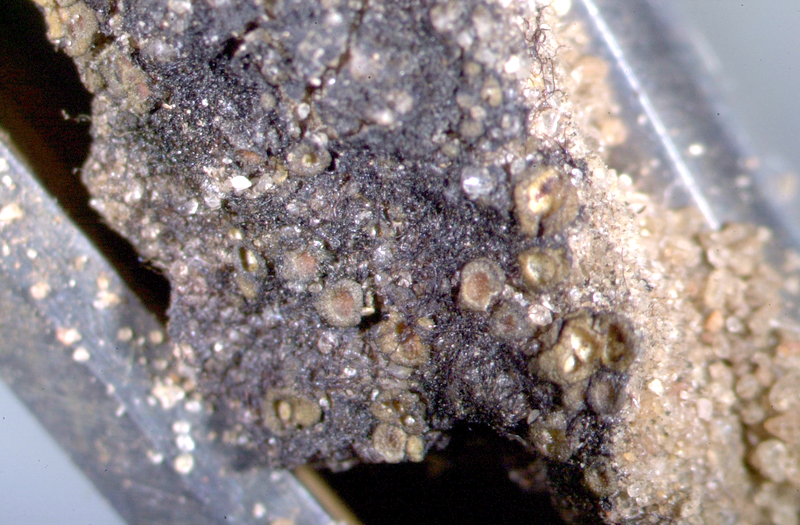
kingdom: Fungi
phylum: Ascomycota
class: Lichinomycetes
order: Lichinales
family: Peltulaceae
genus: Peltula
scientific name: Peltula patellata
